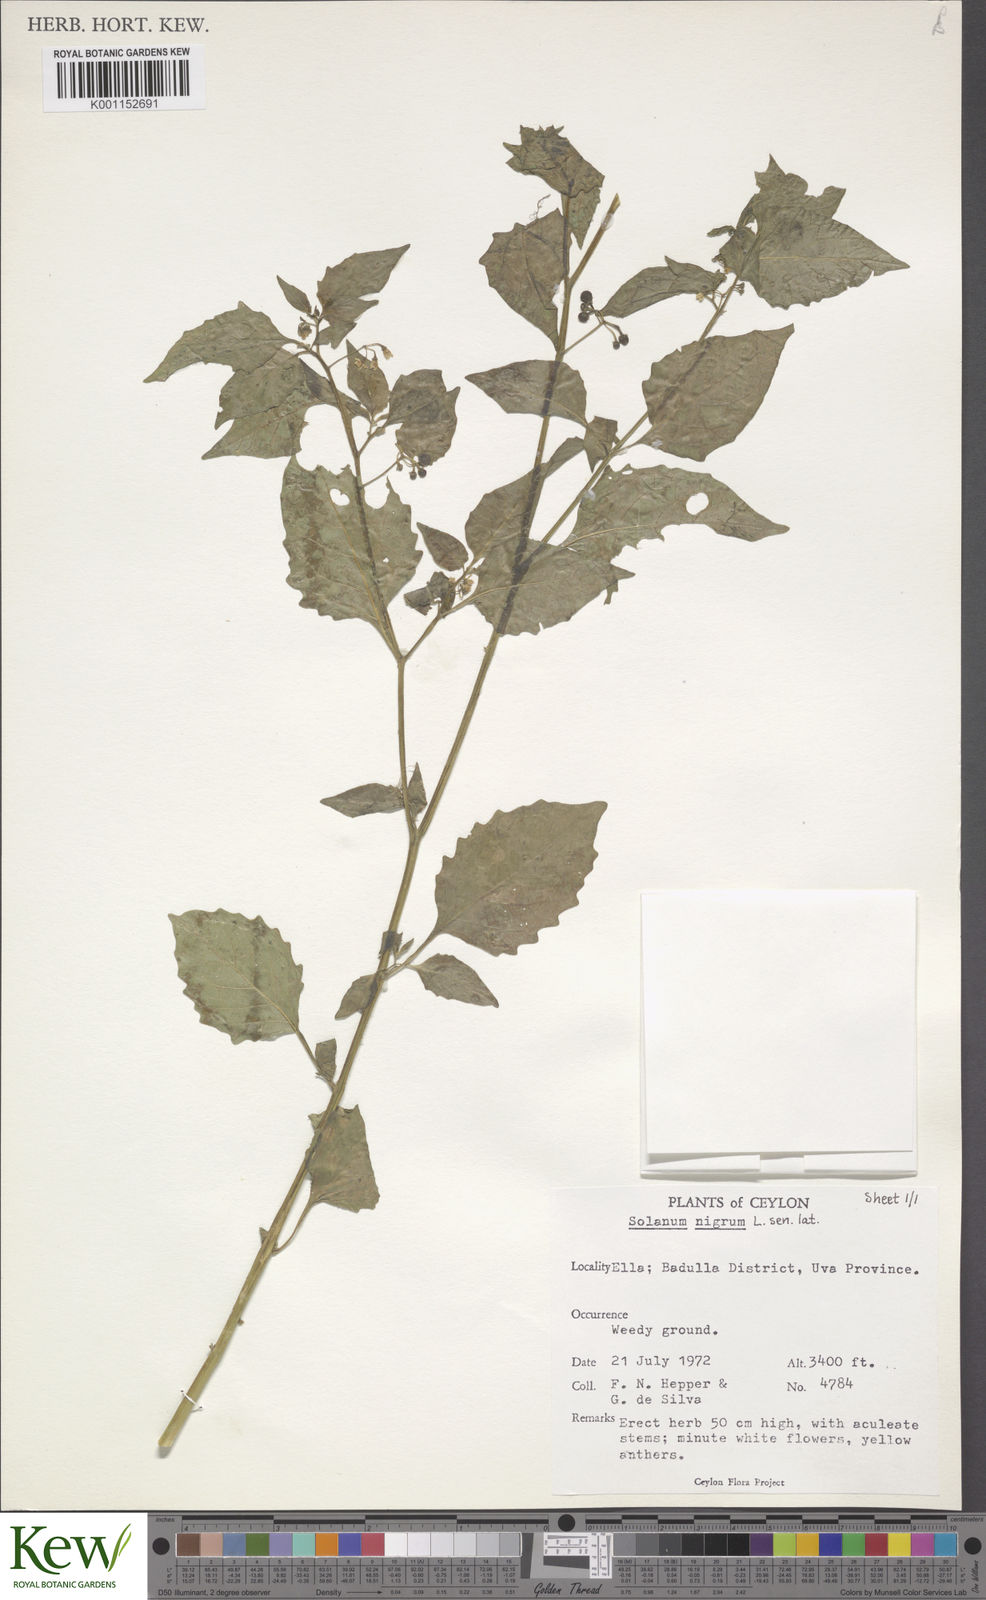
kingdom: Plantae
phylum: Tracheophyta
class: Magnoliopsida
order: Solanales
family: Solanaceae
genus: Solanum
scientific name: Solanum nigrum
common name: Black nightshade
